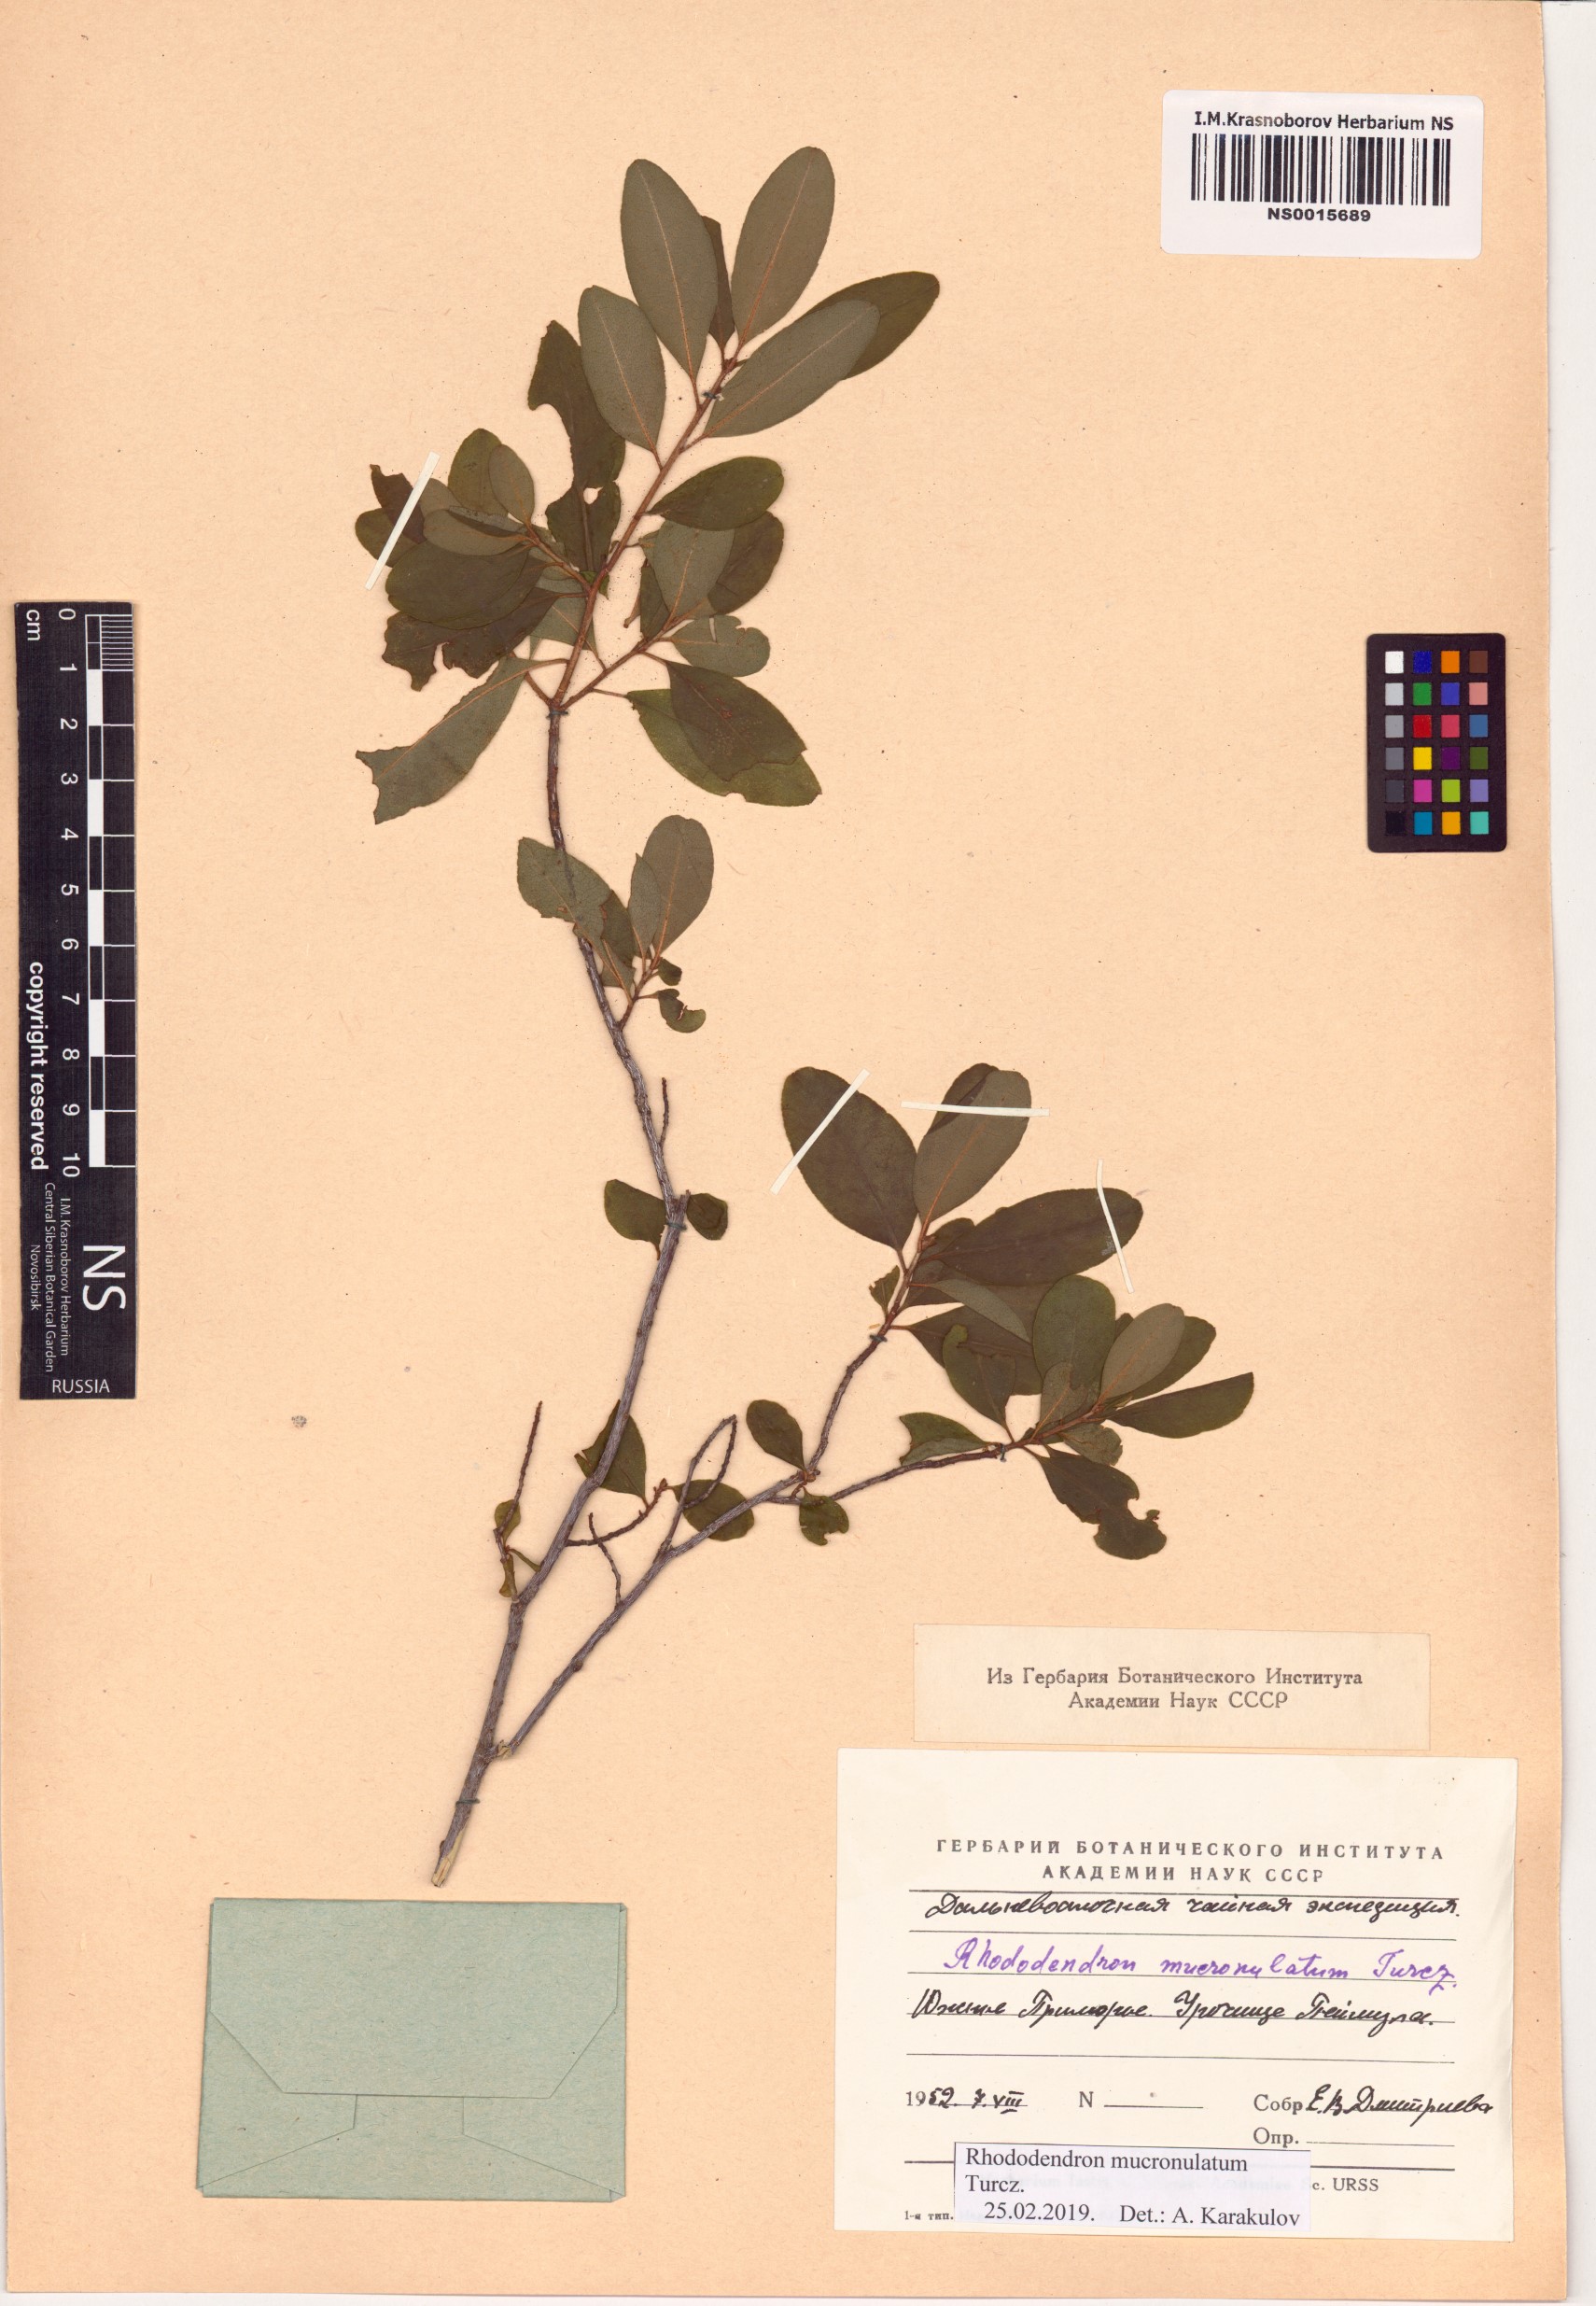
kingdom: Plantae
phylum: Tracheophyta
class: Magnoliopsida
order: Ericales
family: Ericaceae
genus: Rhododendron
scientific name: Rhododendron mucronulatum
